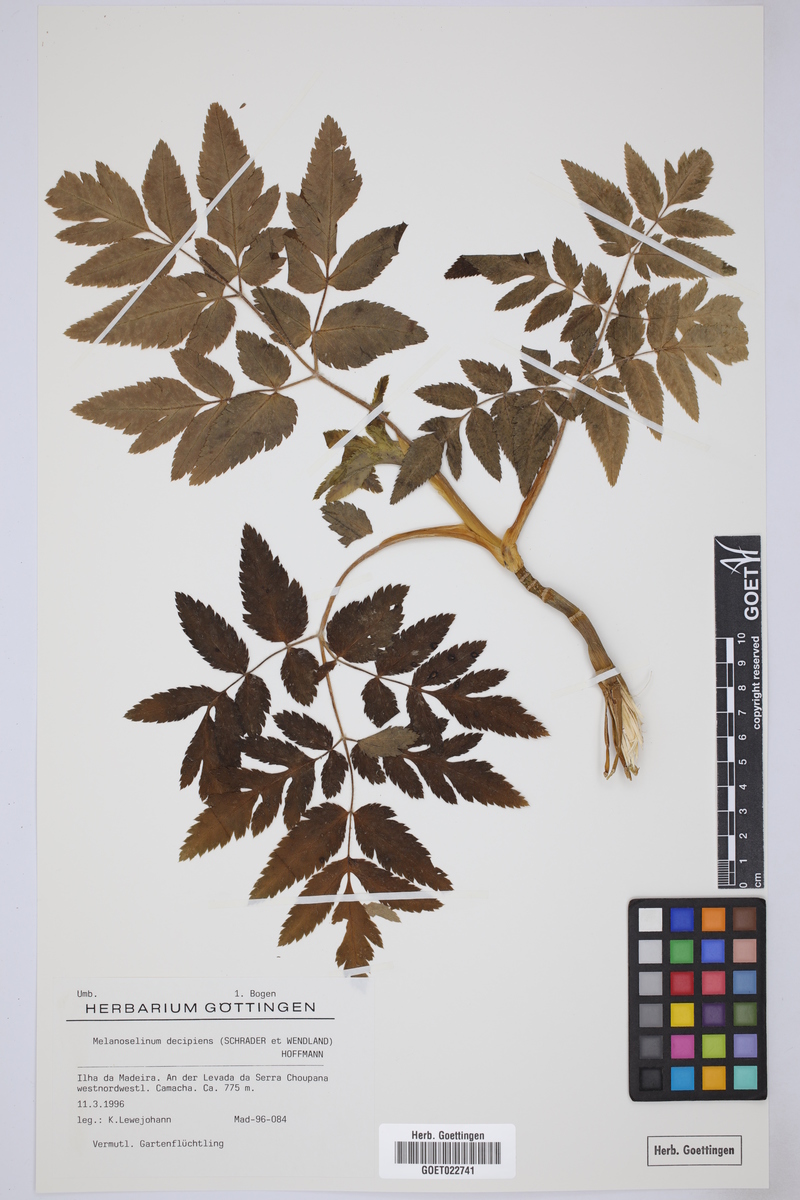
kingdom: Plantae
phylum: Tracheophyta
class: Magnoliopsida
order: Apiales
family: Apiaceae
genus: Daucus
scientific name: Daucus decipiens
